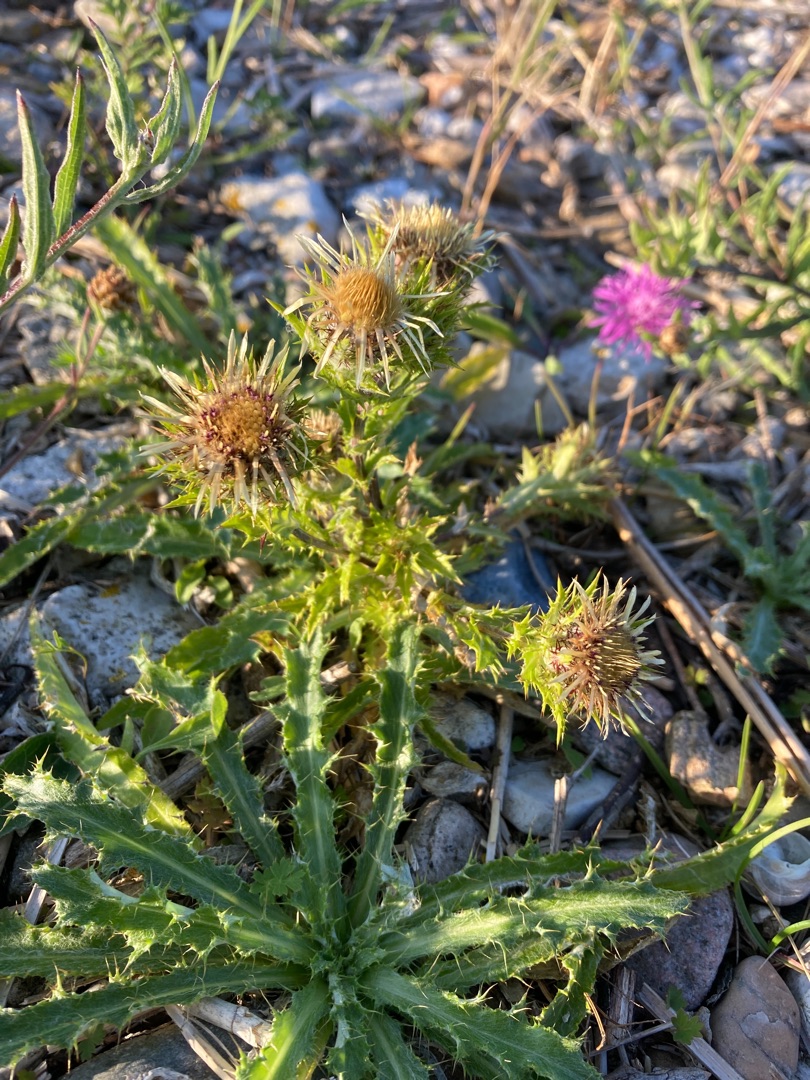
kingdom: Plantae
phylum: Tracheophyta
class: Magnoliopsida
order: Asterales
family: Asteraceae
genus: Carlina
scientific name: Carlina vulgaris
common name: Bakketidsel
